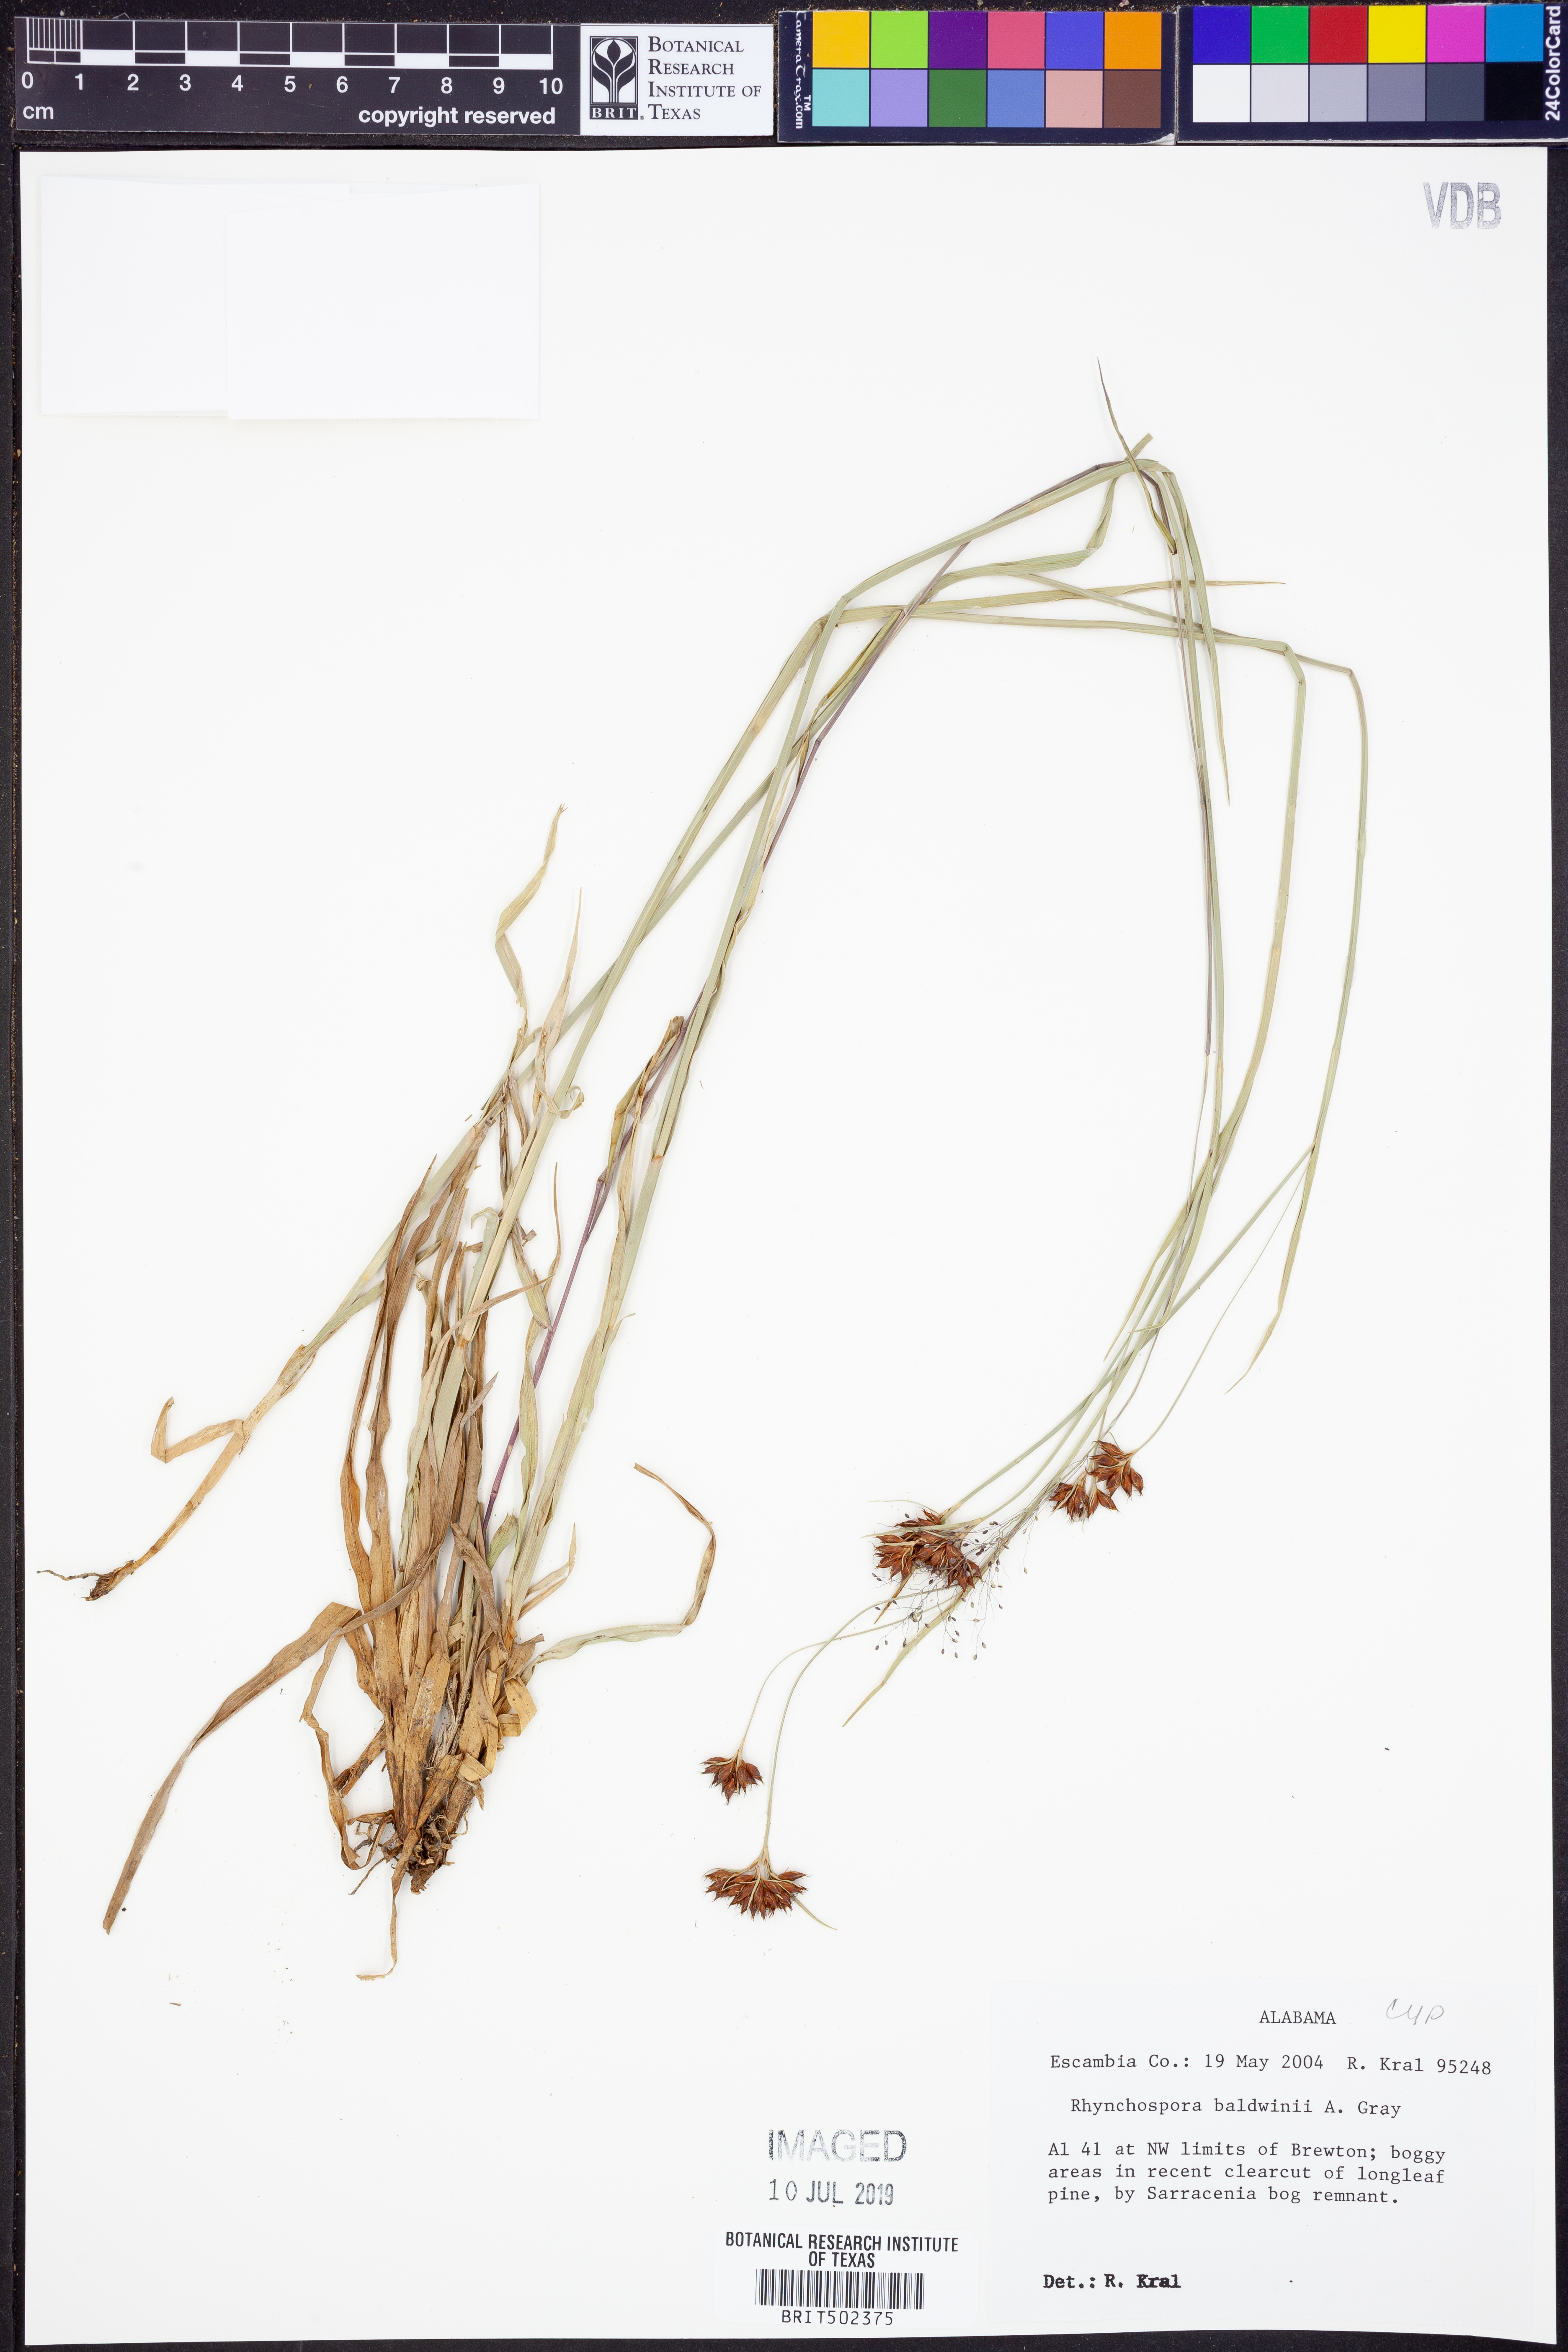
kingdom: Plantae
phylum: Tracheophyta
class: Liliopsida
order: Poales
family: Cyperaceae
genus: Rhynchospora
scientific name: Rhynchospora baldwinii
